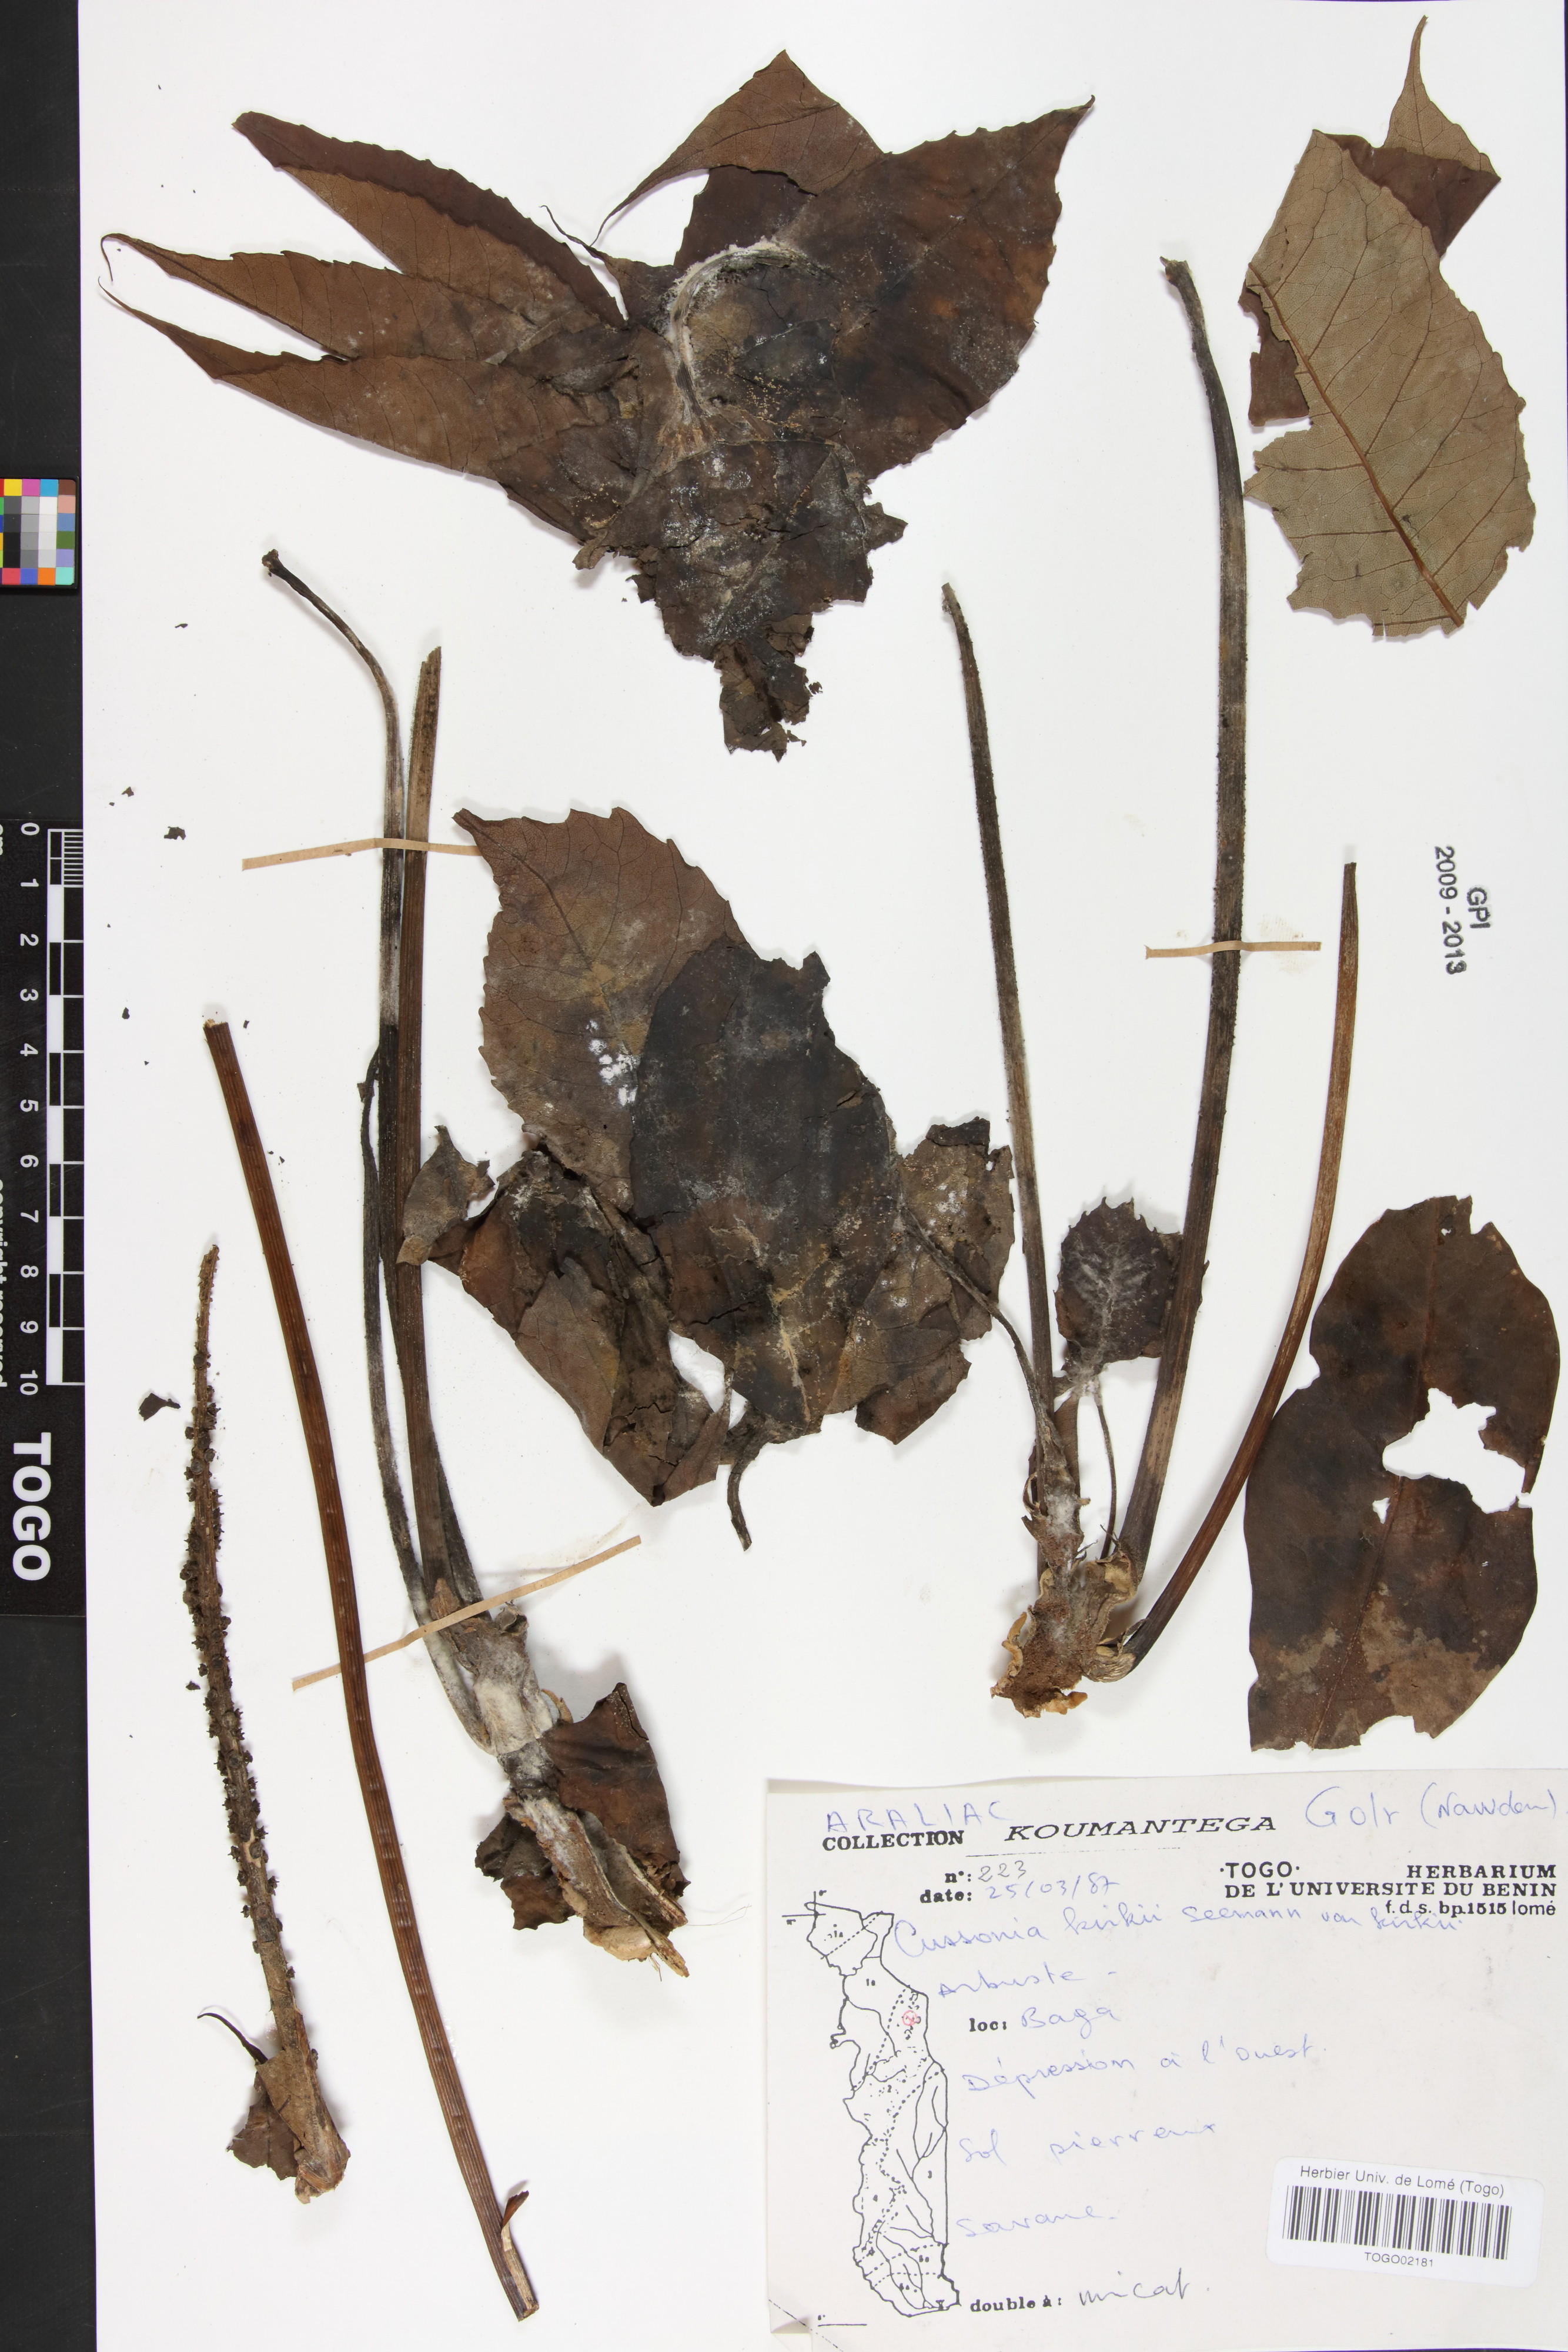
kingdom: Plantae
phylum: Tracheophyta
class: Magnoliopsida
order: Apiales
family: Araliaceae
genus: Cussonia
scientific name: Cussonia arborea
